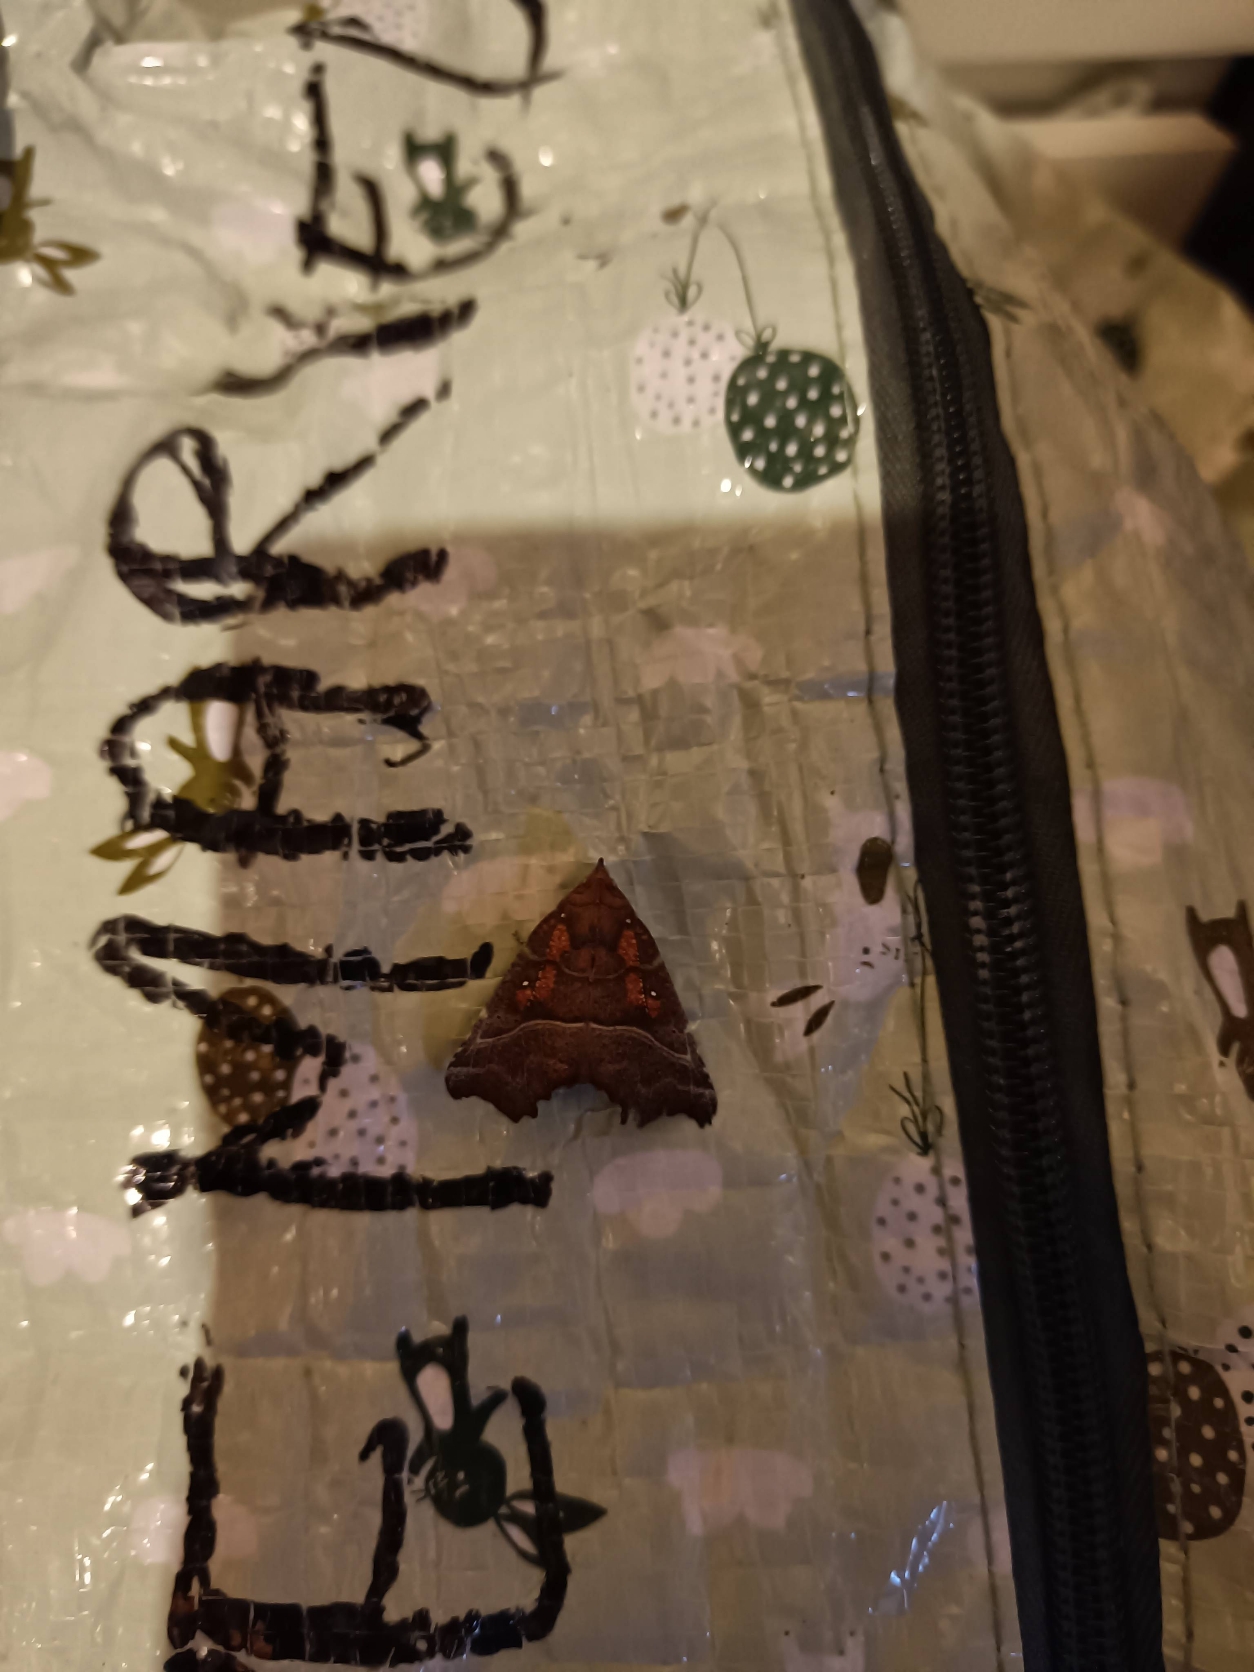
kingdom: Animalia
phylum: Arthropoda
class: Insecta
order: Lepidoptera
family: Erebidae
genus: Scoliopteryx
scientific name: Scoliopteryx libatrix
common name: Husmoderugle
